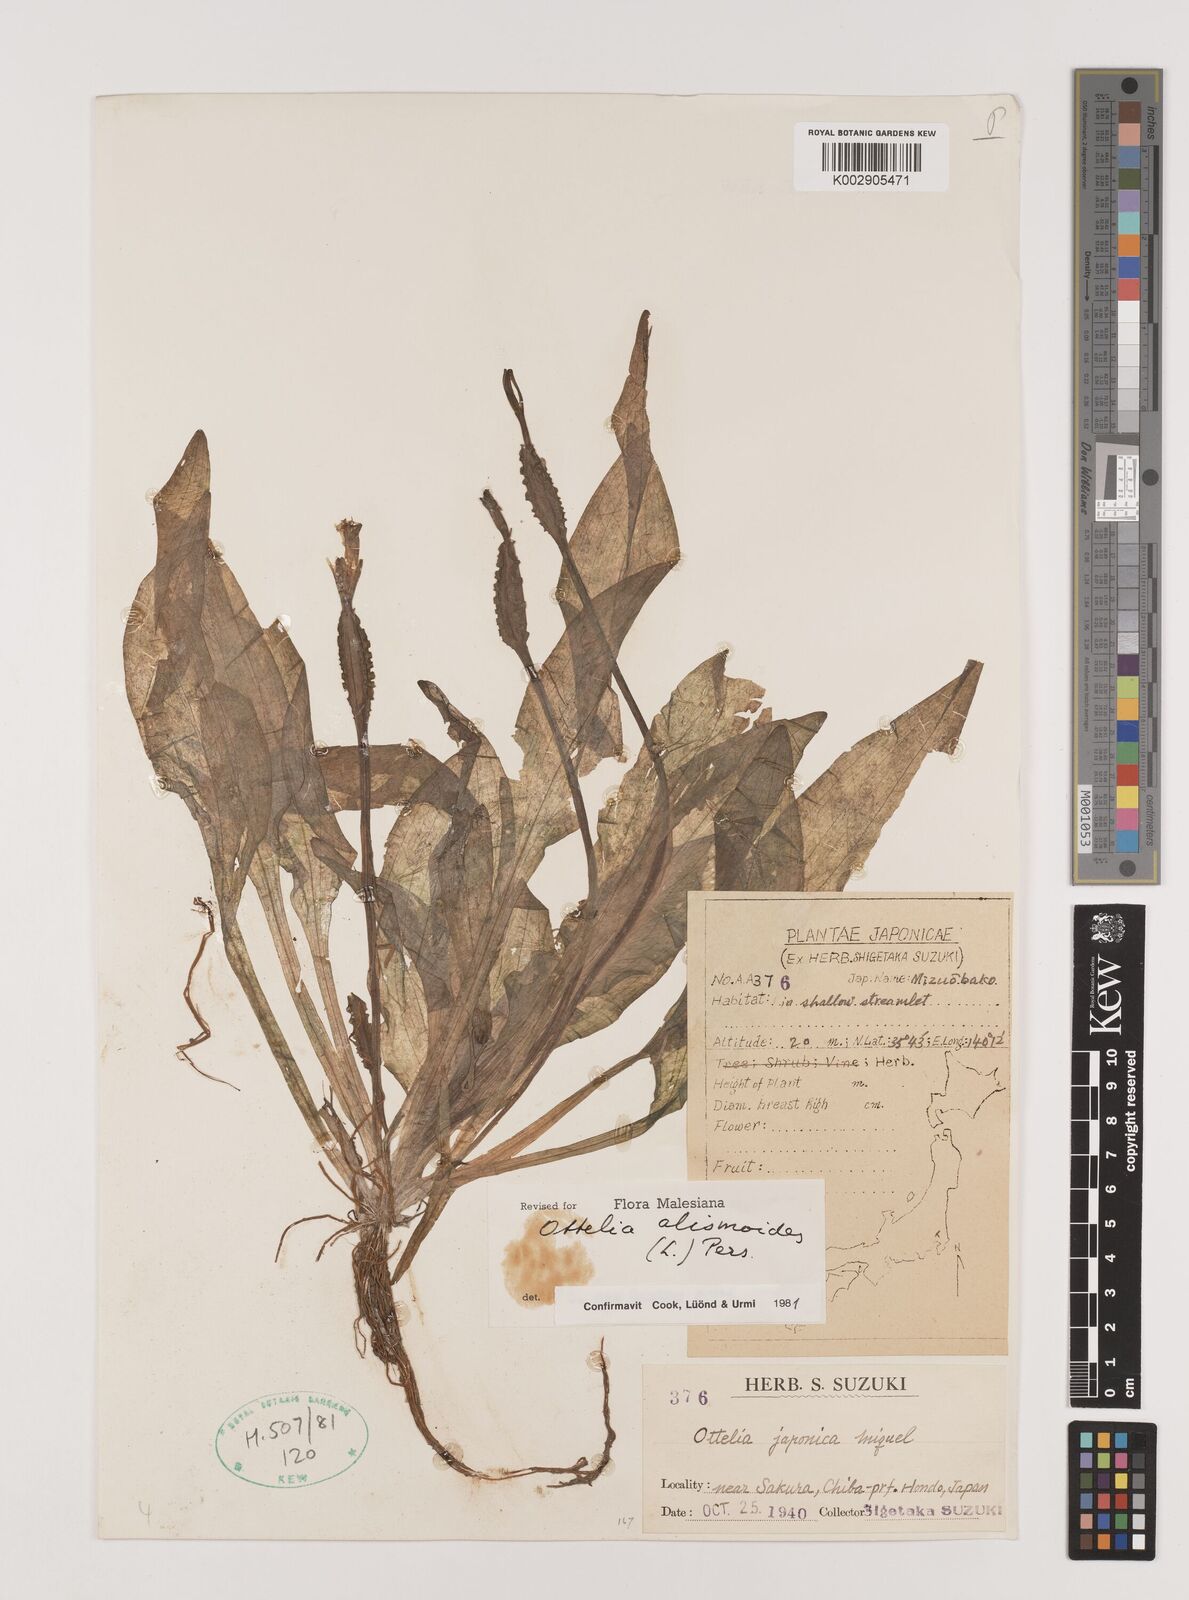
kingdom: Plantae
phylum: Tracheophyta
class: Liliopsida
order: Alismatales
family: Hydrocharitaceae
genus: Ottelia
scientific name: Ottelia alismoides
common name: Duck-lettuce
